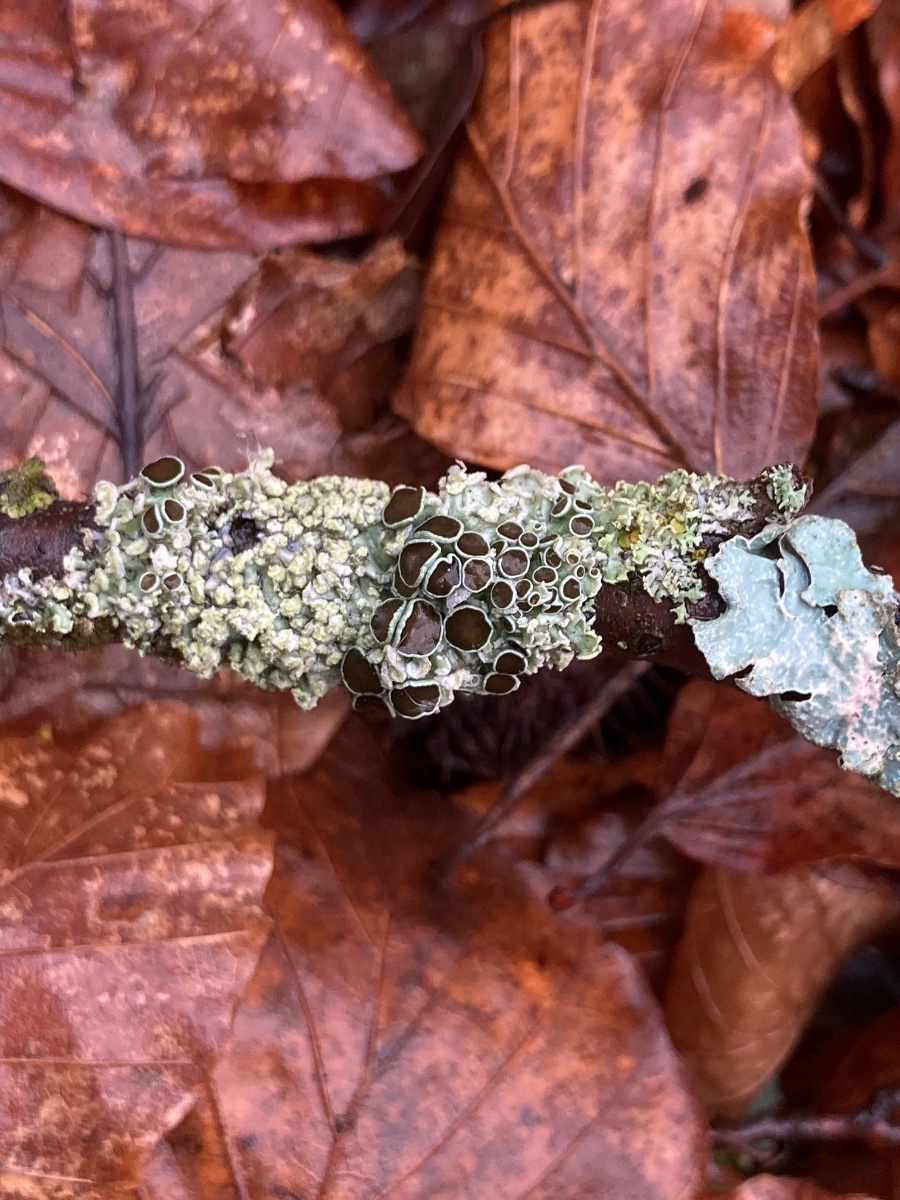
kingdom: Fungi
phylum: Ascomycota
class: Lecanoromycetes
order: Caliciales
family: Physciaceae
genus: Physcia
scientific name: Physcia tenella
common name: spæd rosetlav
